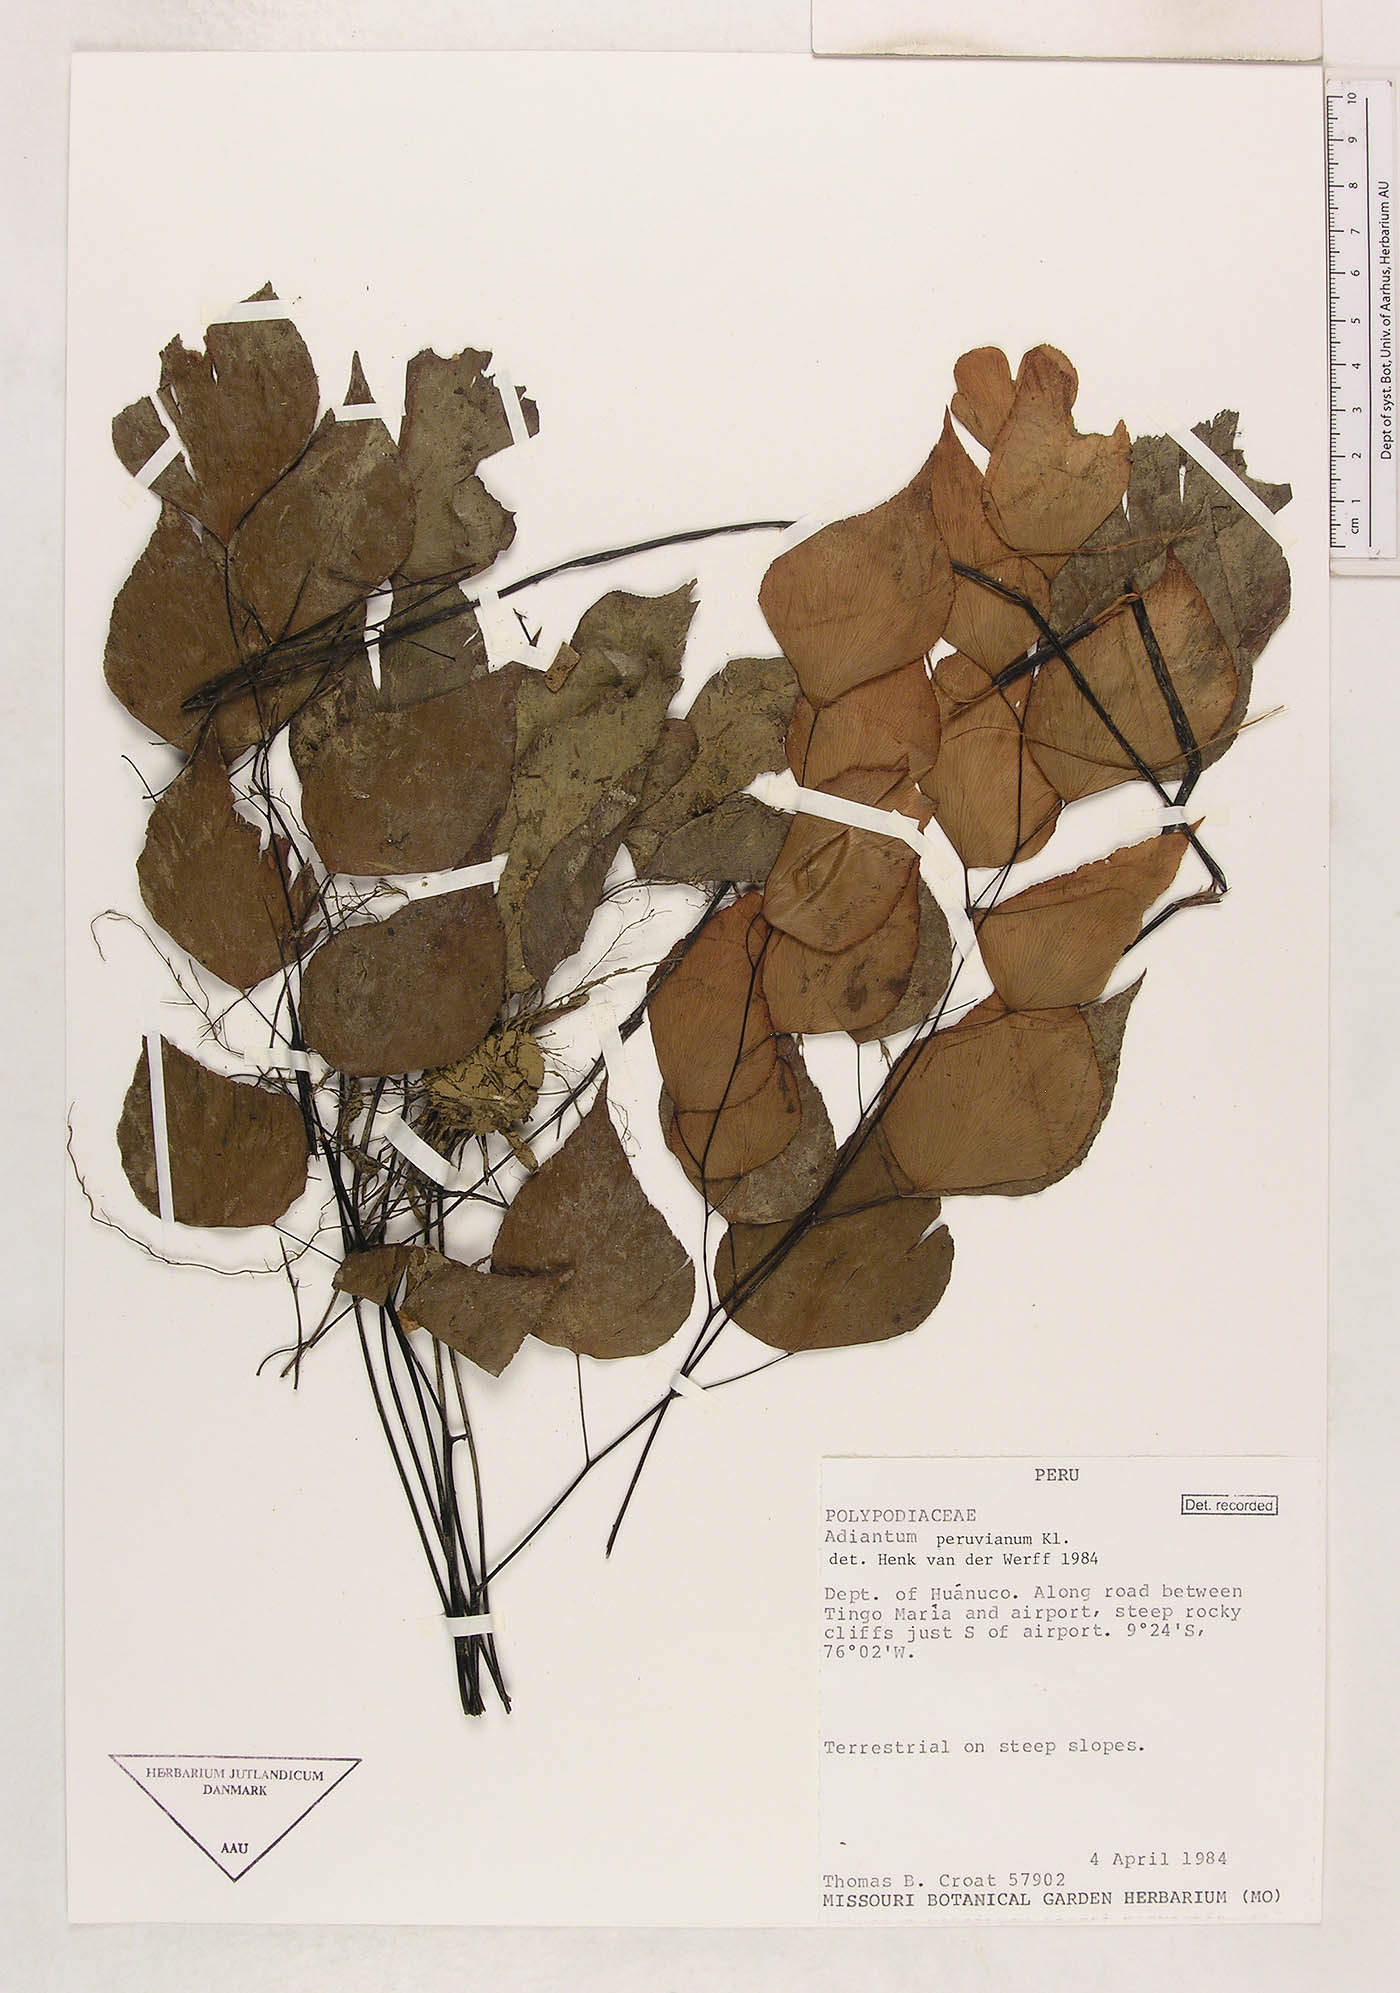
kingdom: Plantae
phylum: Tracheophyta
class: Polypodiopsida
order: Polypodiales
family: Pteridaceae
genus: Adiantum
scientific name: Adiantum anceps
